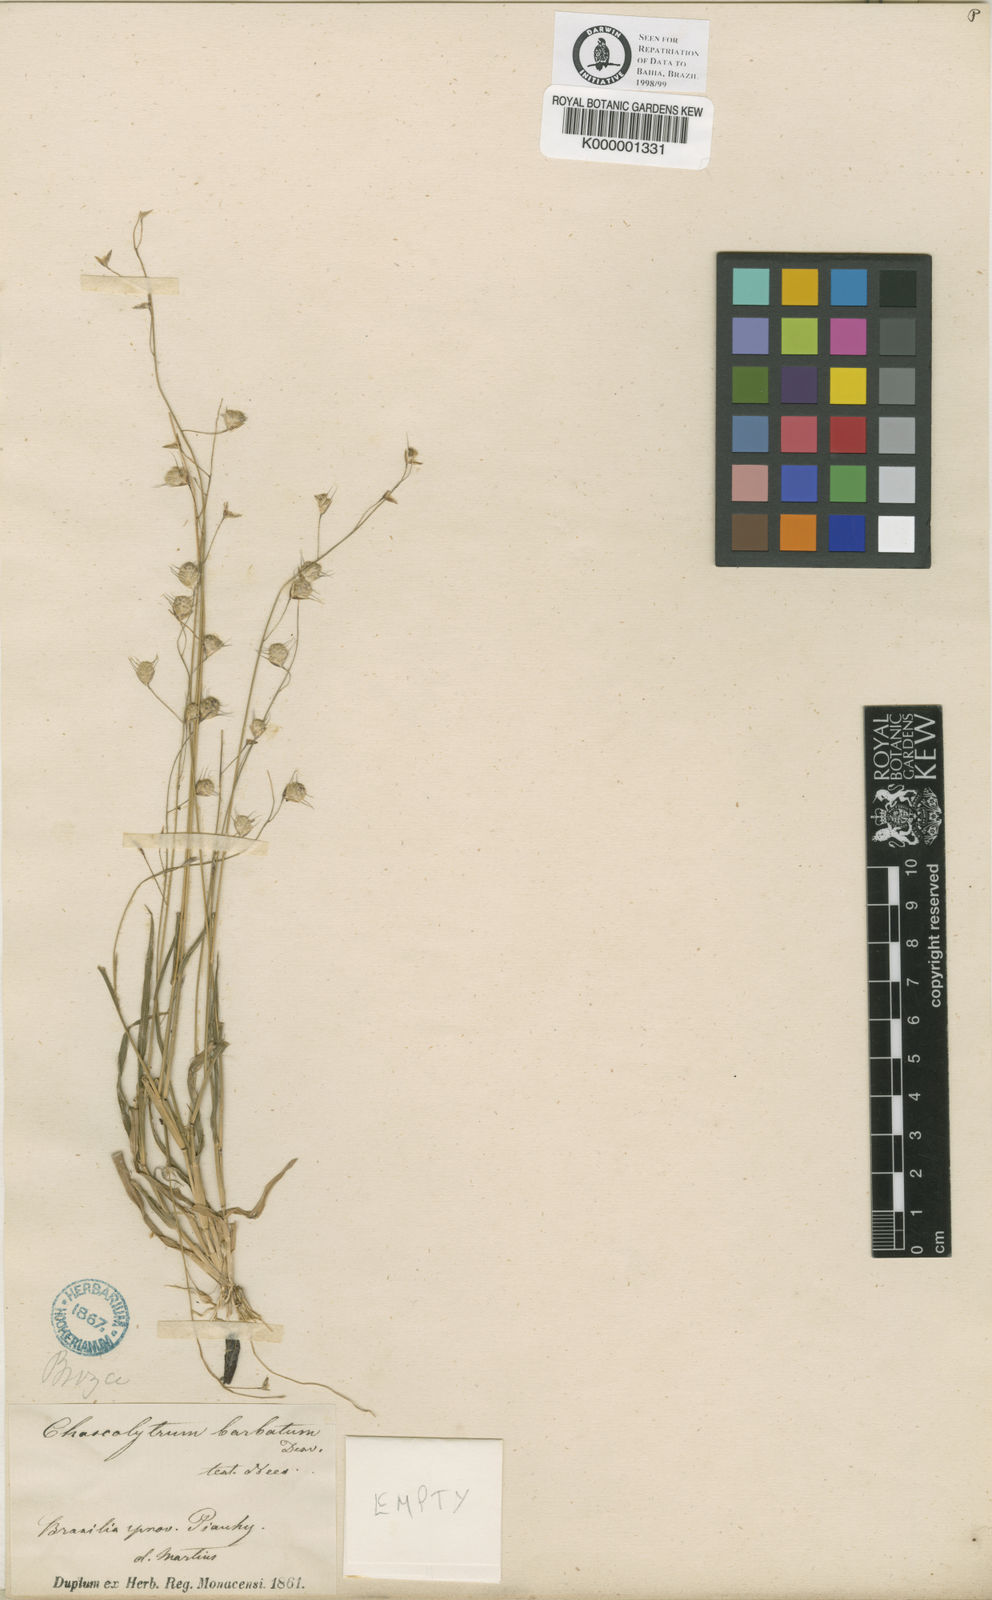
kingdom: Plantae
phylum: Tracheophyta
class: Liliopsida
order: Poales
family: Poaceae
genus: Neesiochloa
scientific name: Neesiochloa barbata
